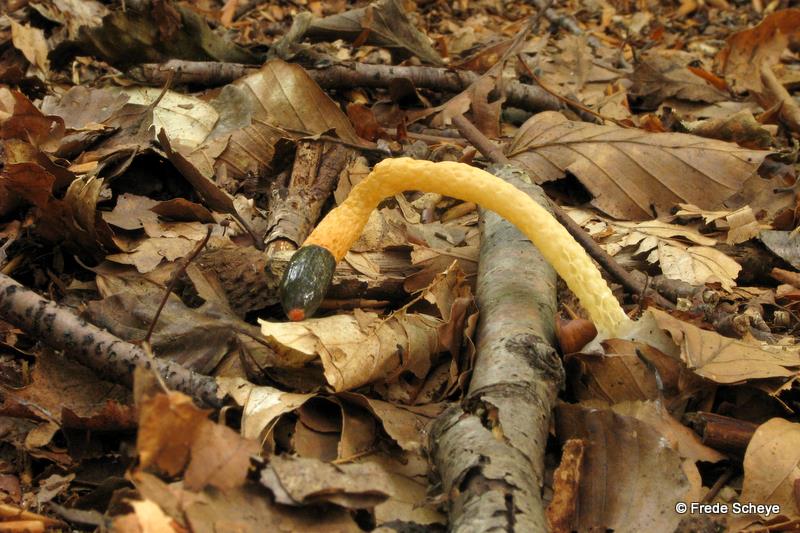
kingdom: Fungi
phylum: Basidiomycota
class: Agaricomycetes
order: Phallales
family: Phallaceae
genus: Mutinus
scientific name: Mutinus caninus
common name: hunde-stinksvamp
